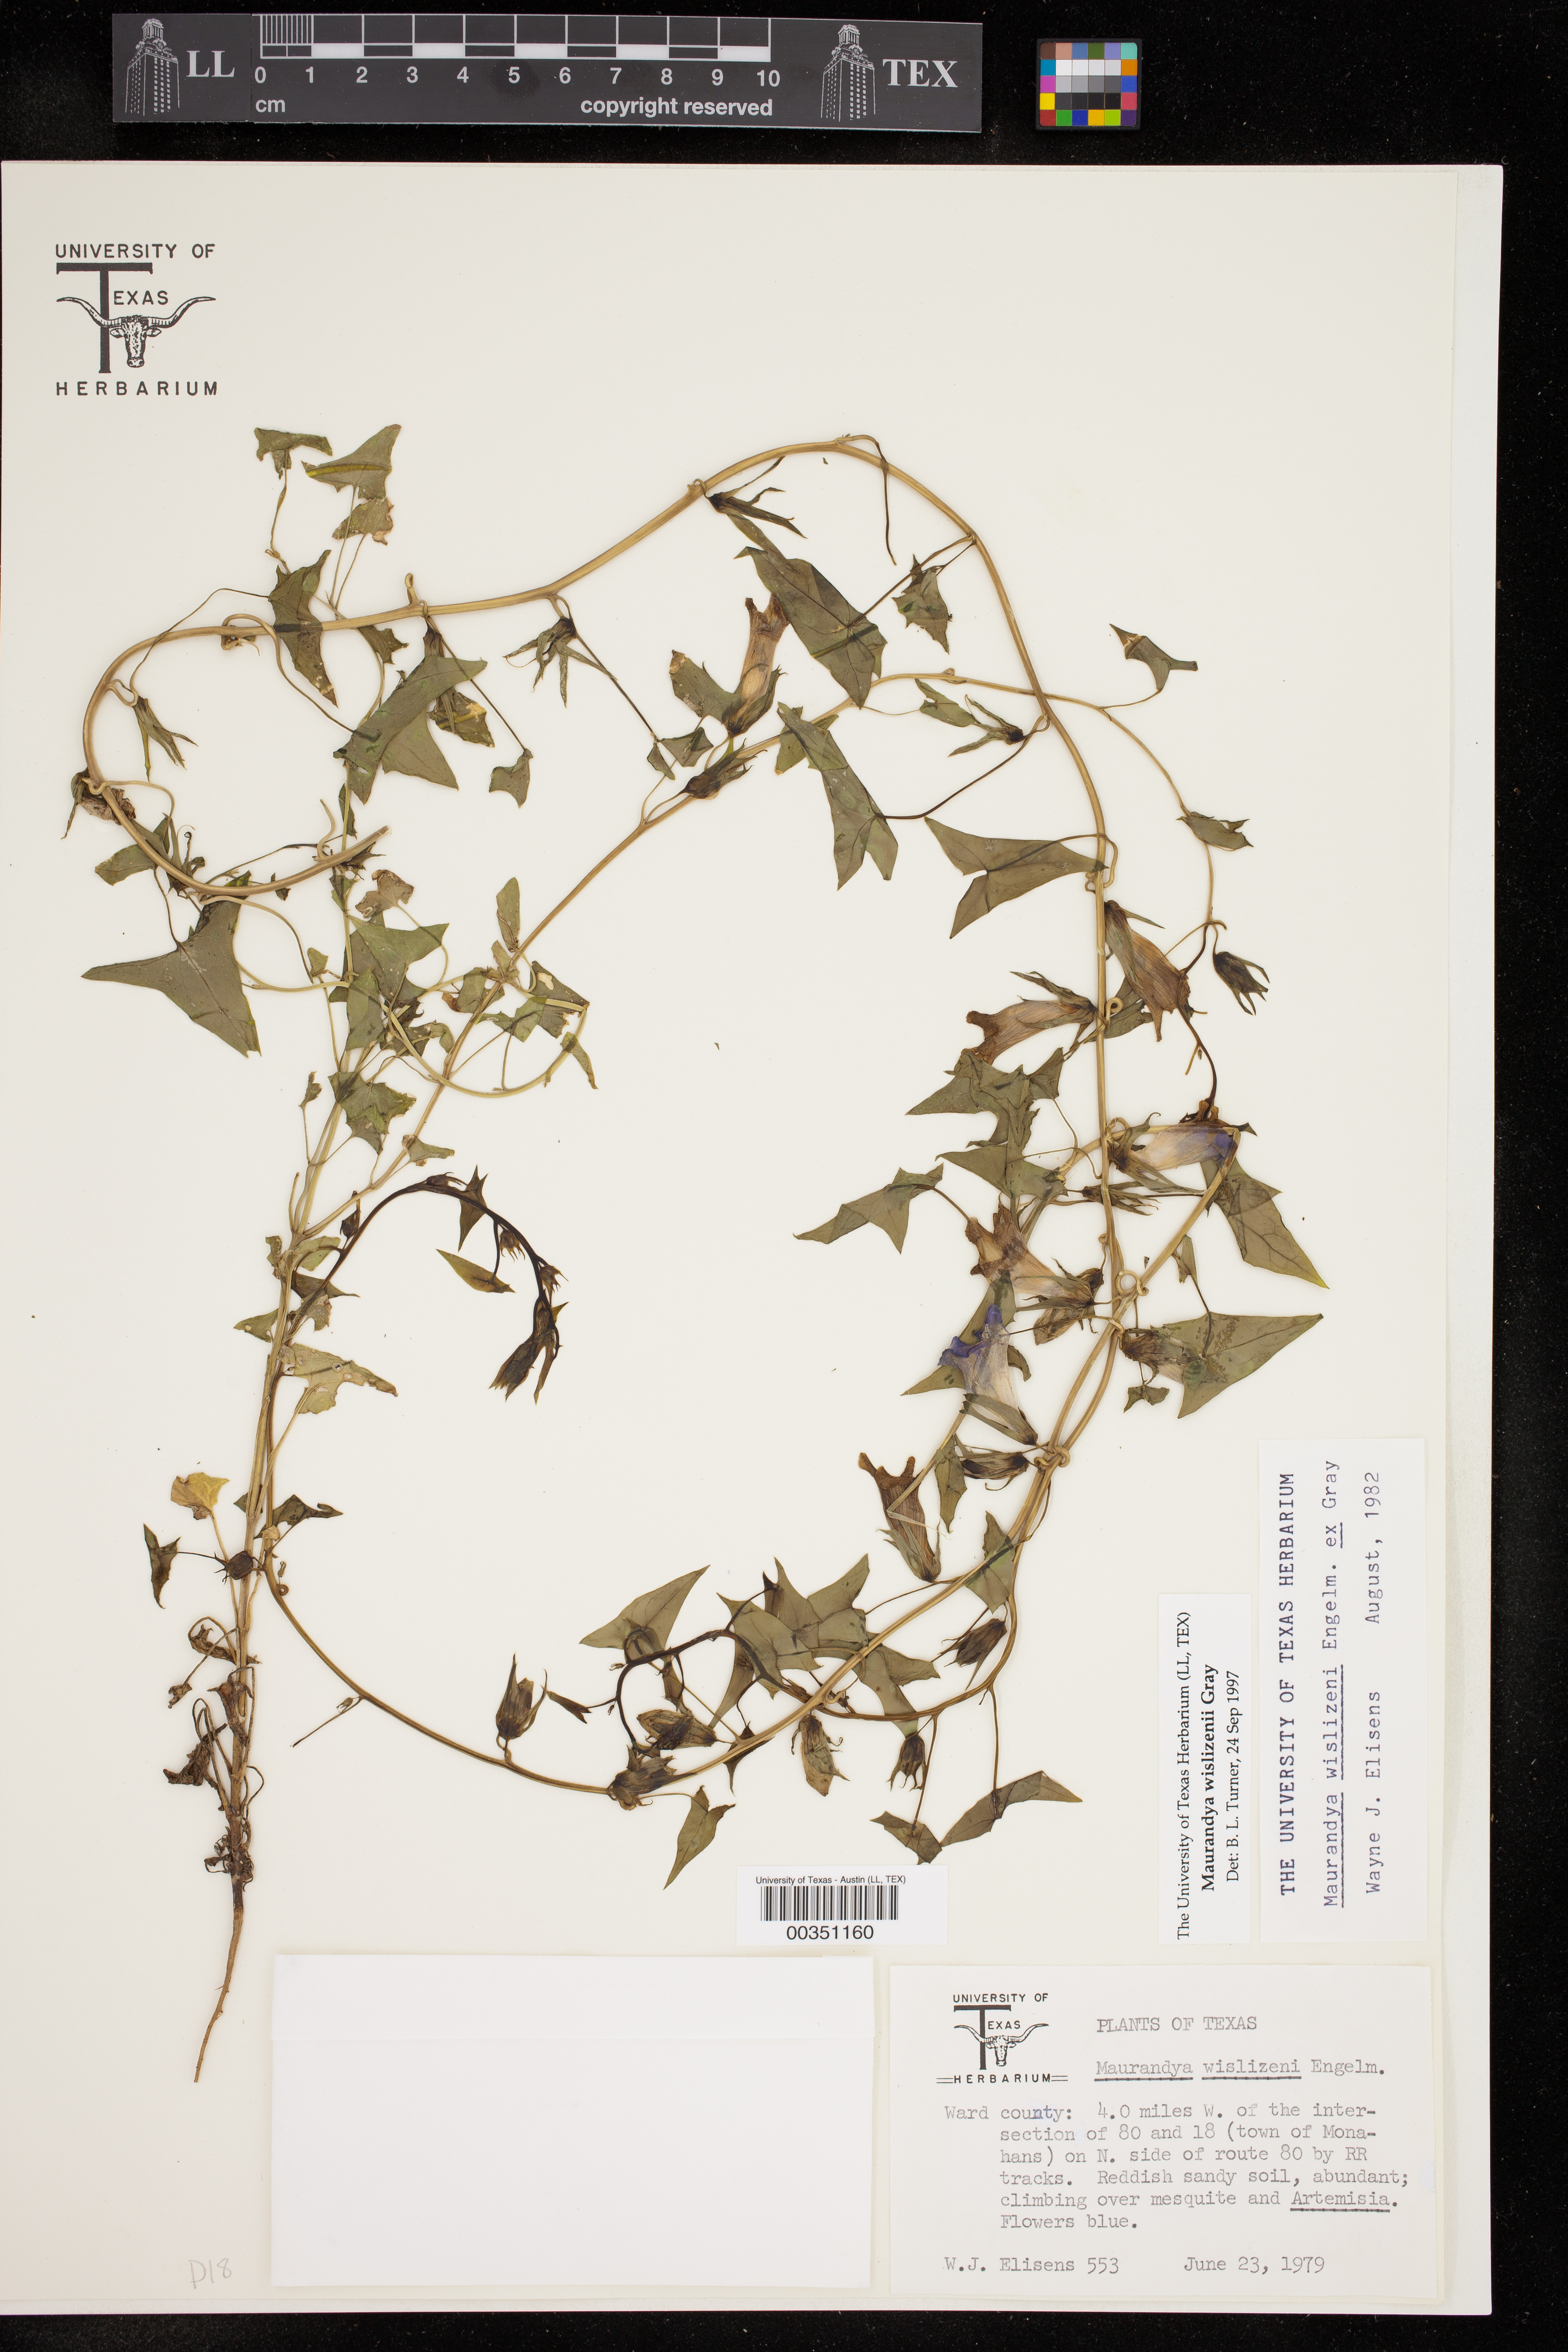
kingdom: Plantae
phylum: Tracheophyta
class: Magnoliopsida
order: Lamiales
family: Plantaginaceae
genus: Epixiphium
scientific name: Epixiphium wislizeni
